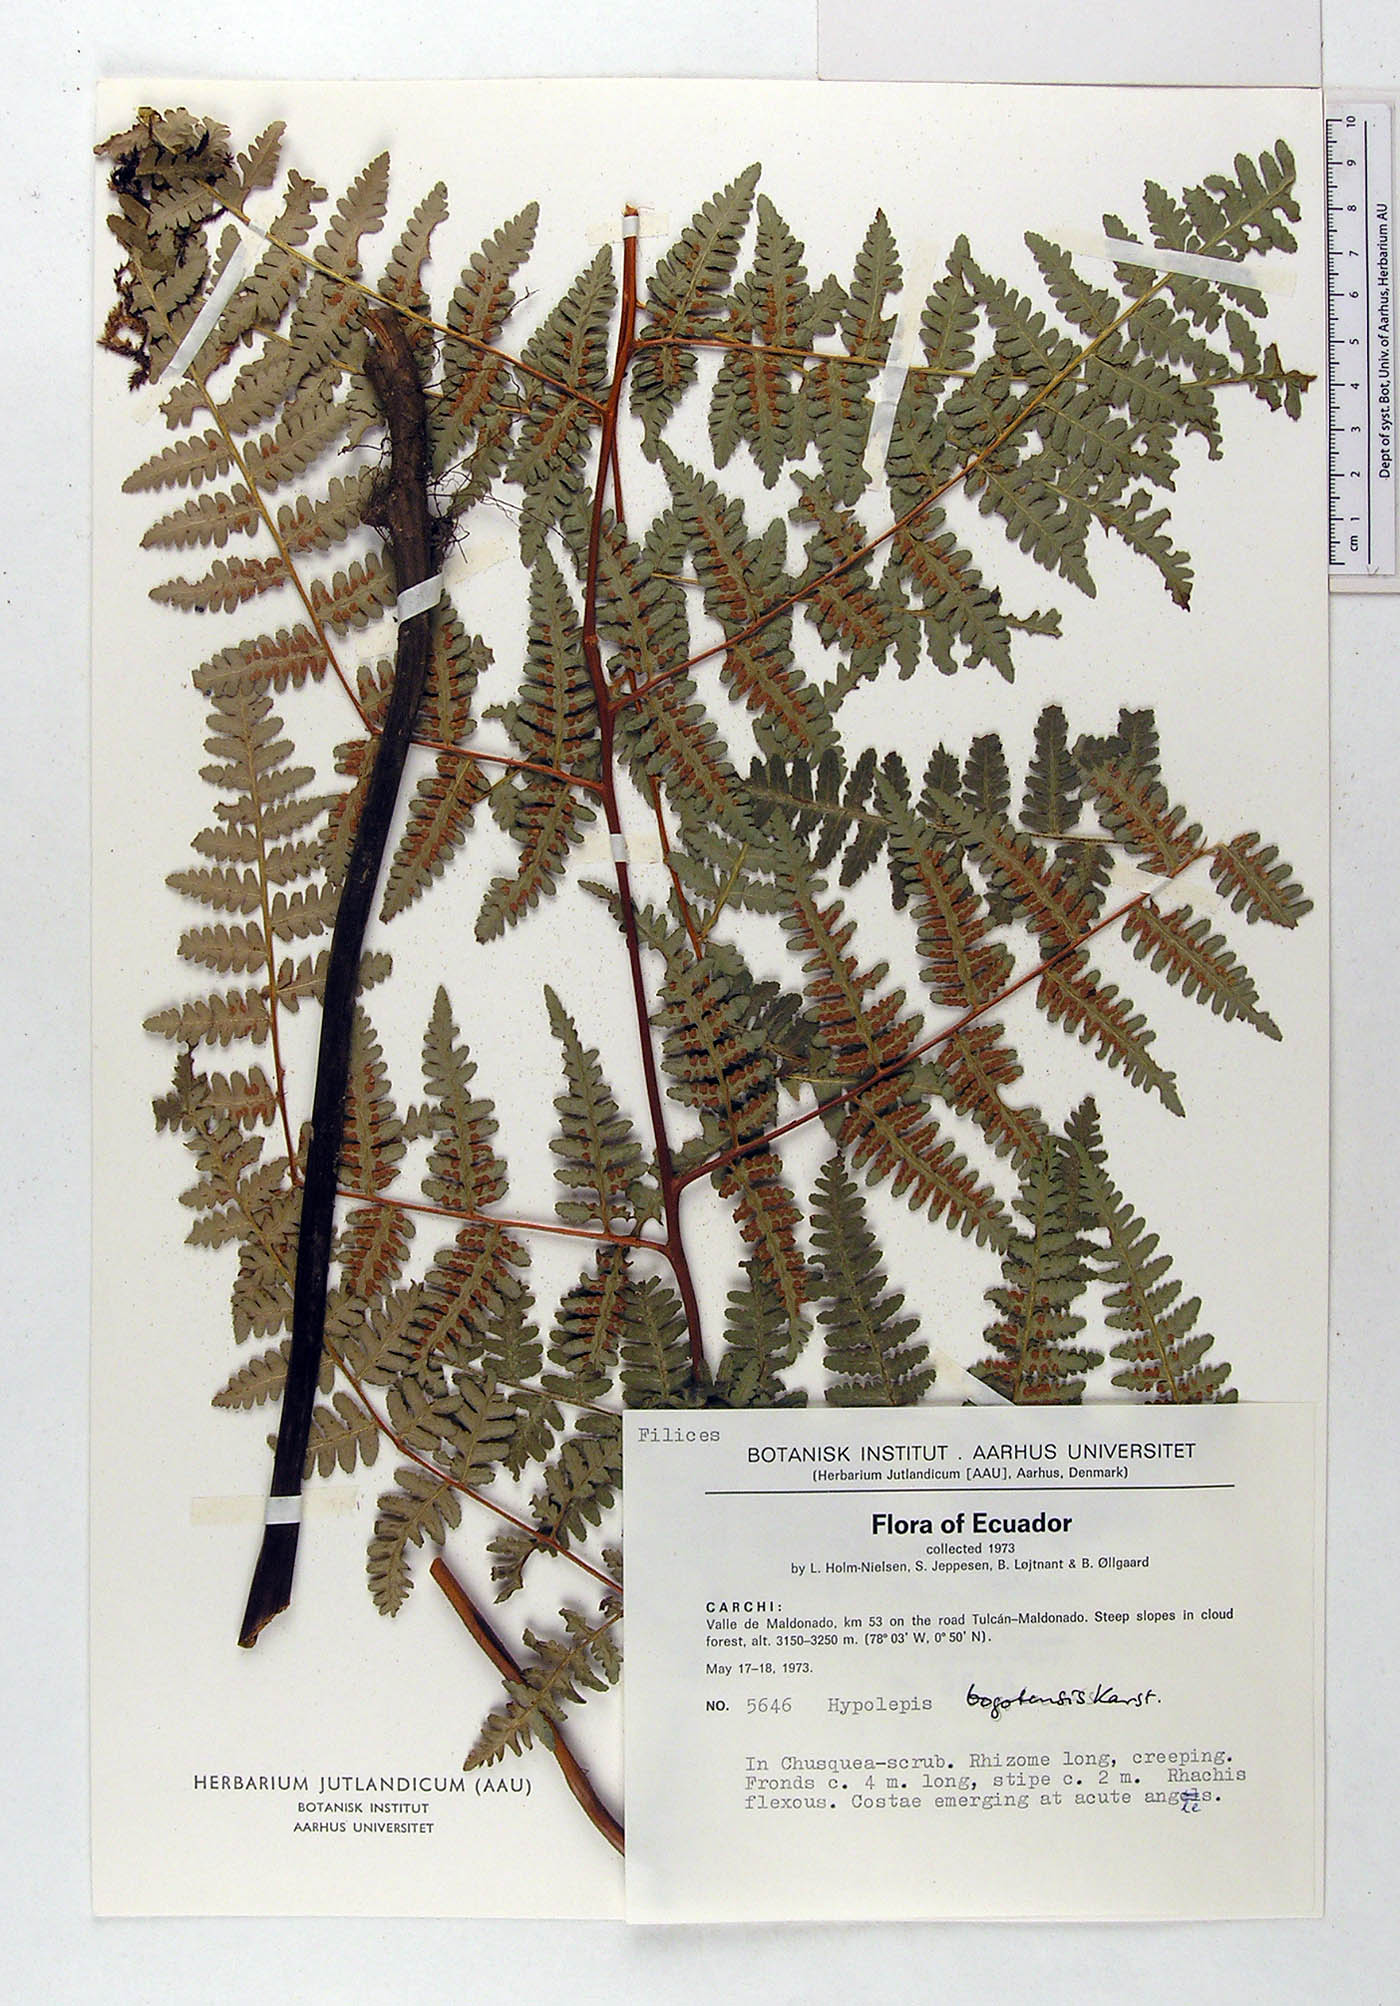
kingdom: Plantae
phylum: Tracheophyta
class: Polypodiopsida
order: Polypodiales
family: Dennstaedtiaceae
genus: Hypolepis
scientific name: Hypolepis bogotensis
